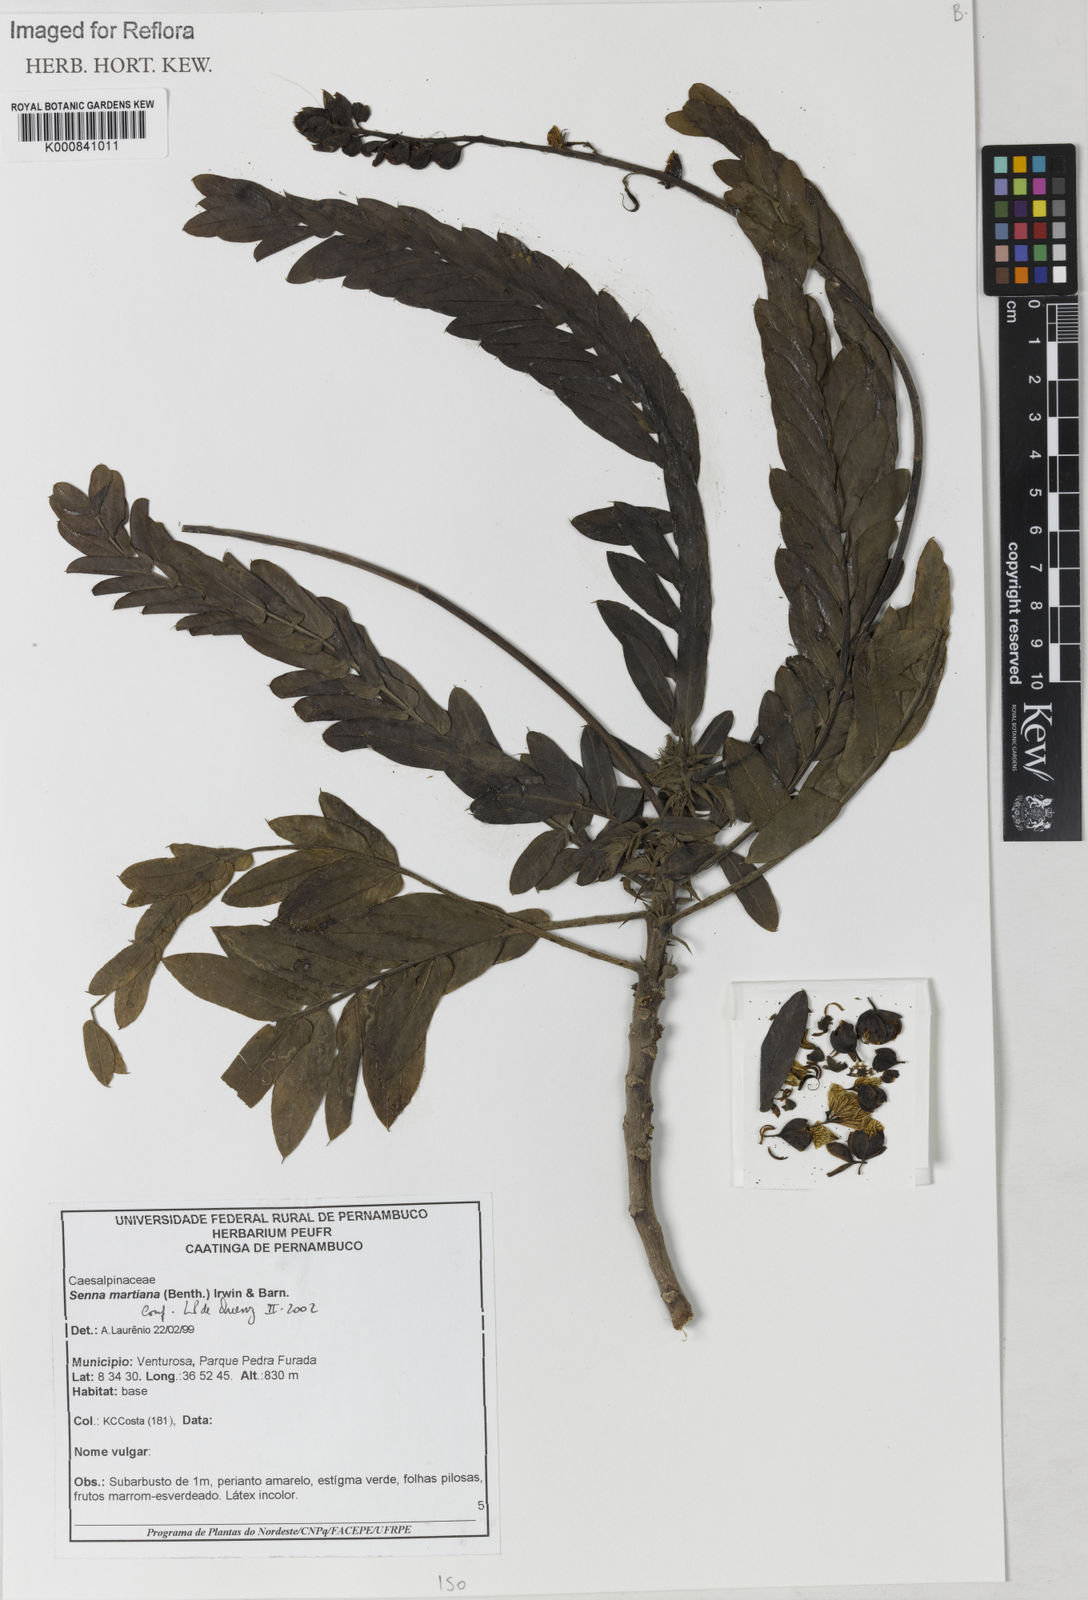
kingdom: Plantae
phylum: Tracheophyta
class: Magnoliopsida
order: Fabales
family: Fabaceae
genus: Senna
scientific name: Senna martiana
